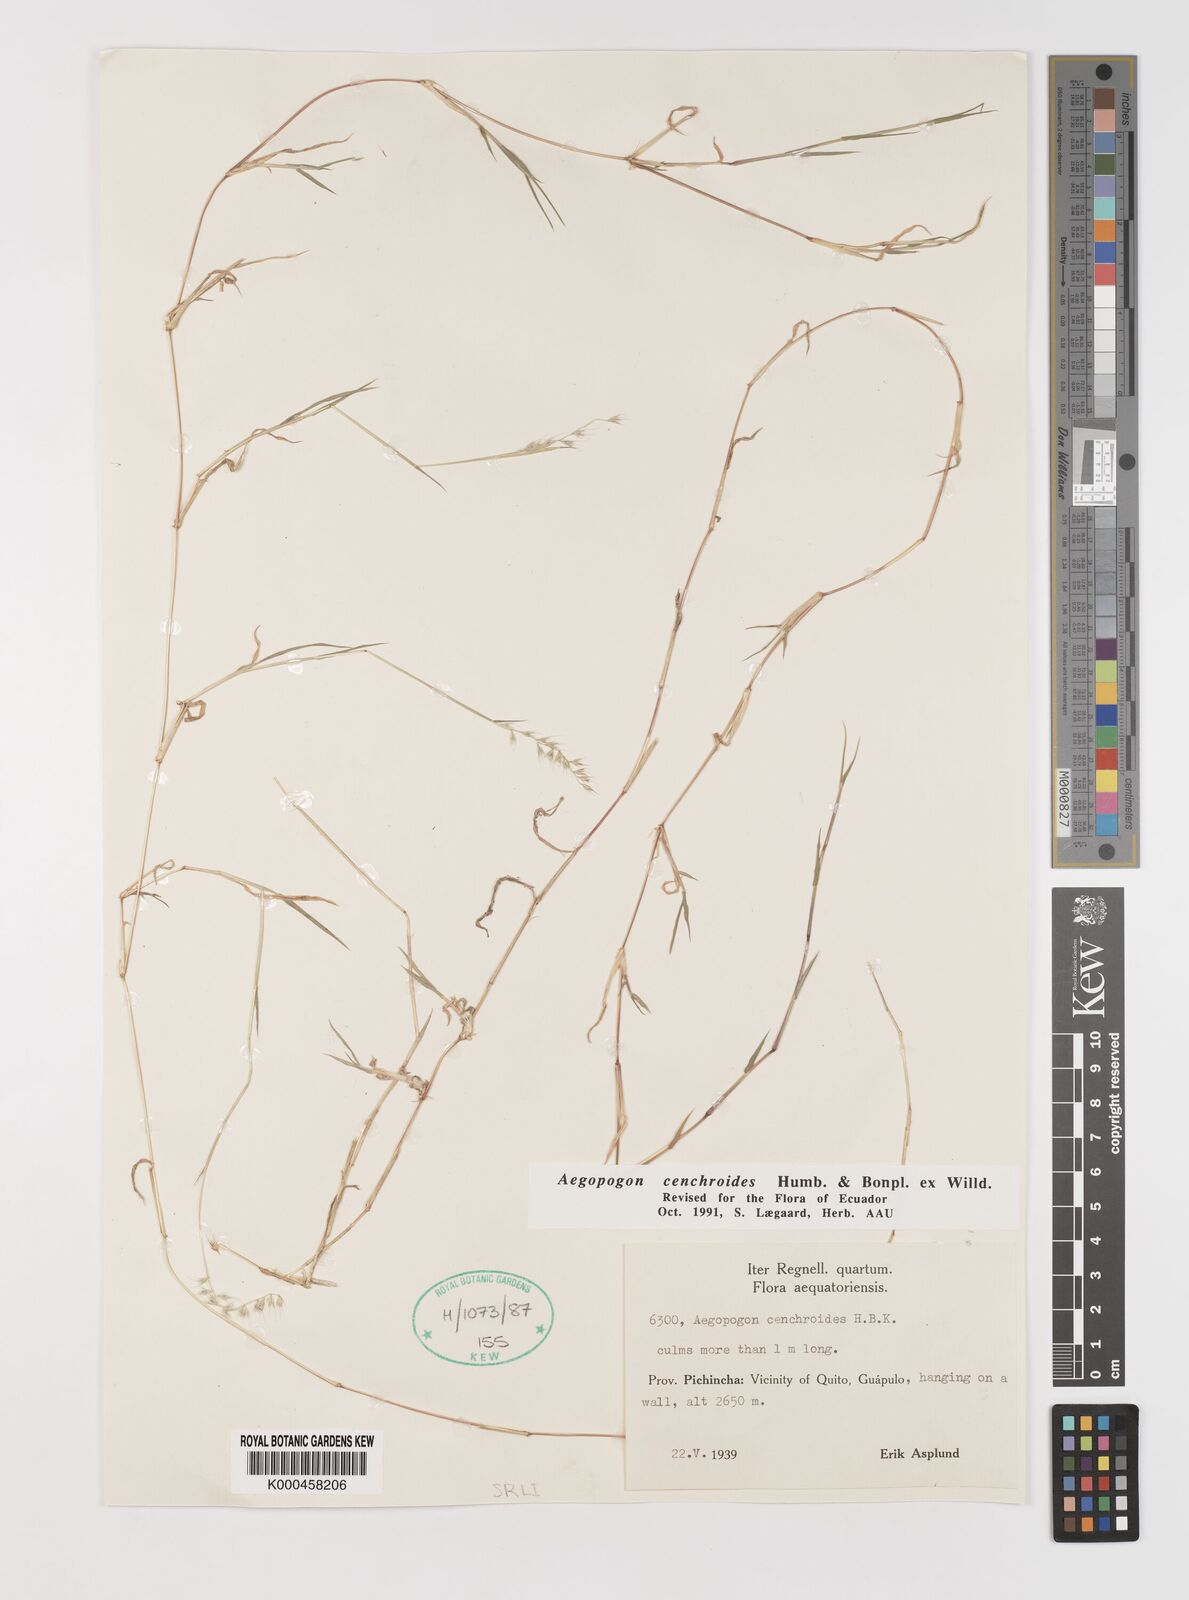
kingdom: Plantae
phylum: Tracheophyta
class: Liliopsida
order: Poales
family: Poaceae
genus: Muhlenbergia
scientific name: Muhlenbergia
